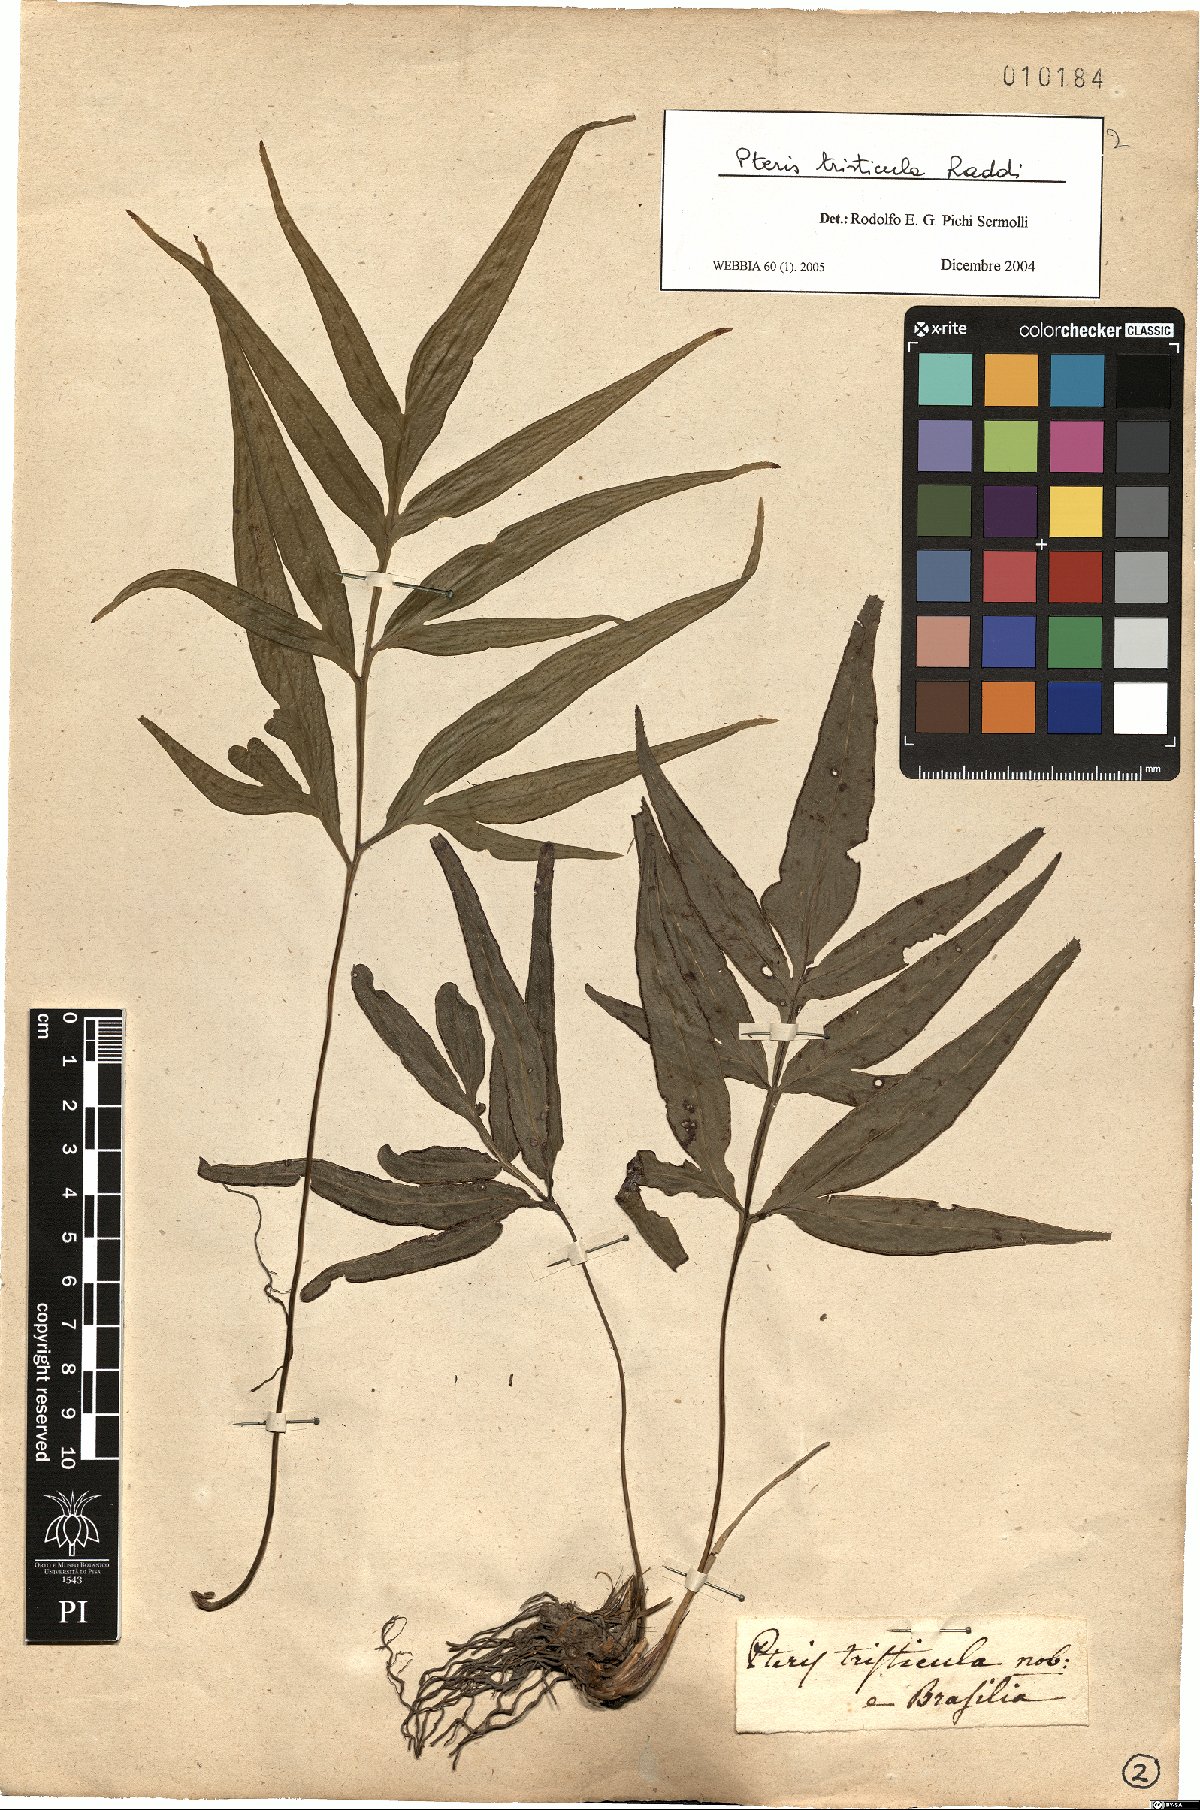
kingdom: Plantae
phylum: Tracheophyta
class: Polypodiopsida
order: Polypodiales
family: Pteridaceae
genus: Pteris
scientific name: Pteris denticulata
